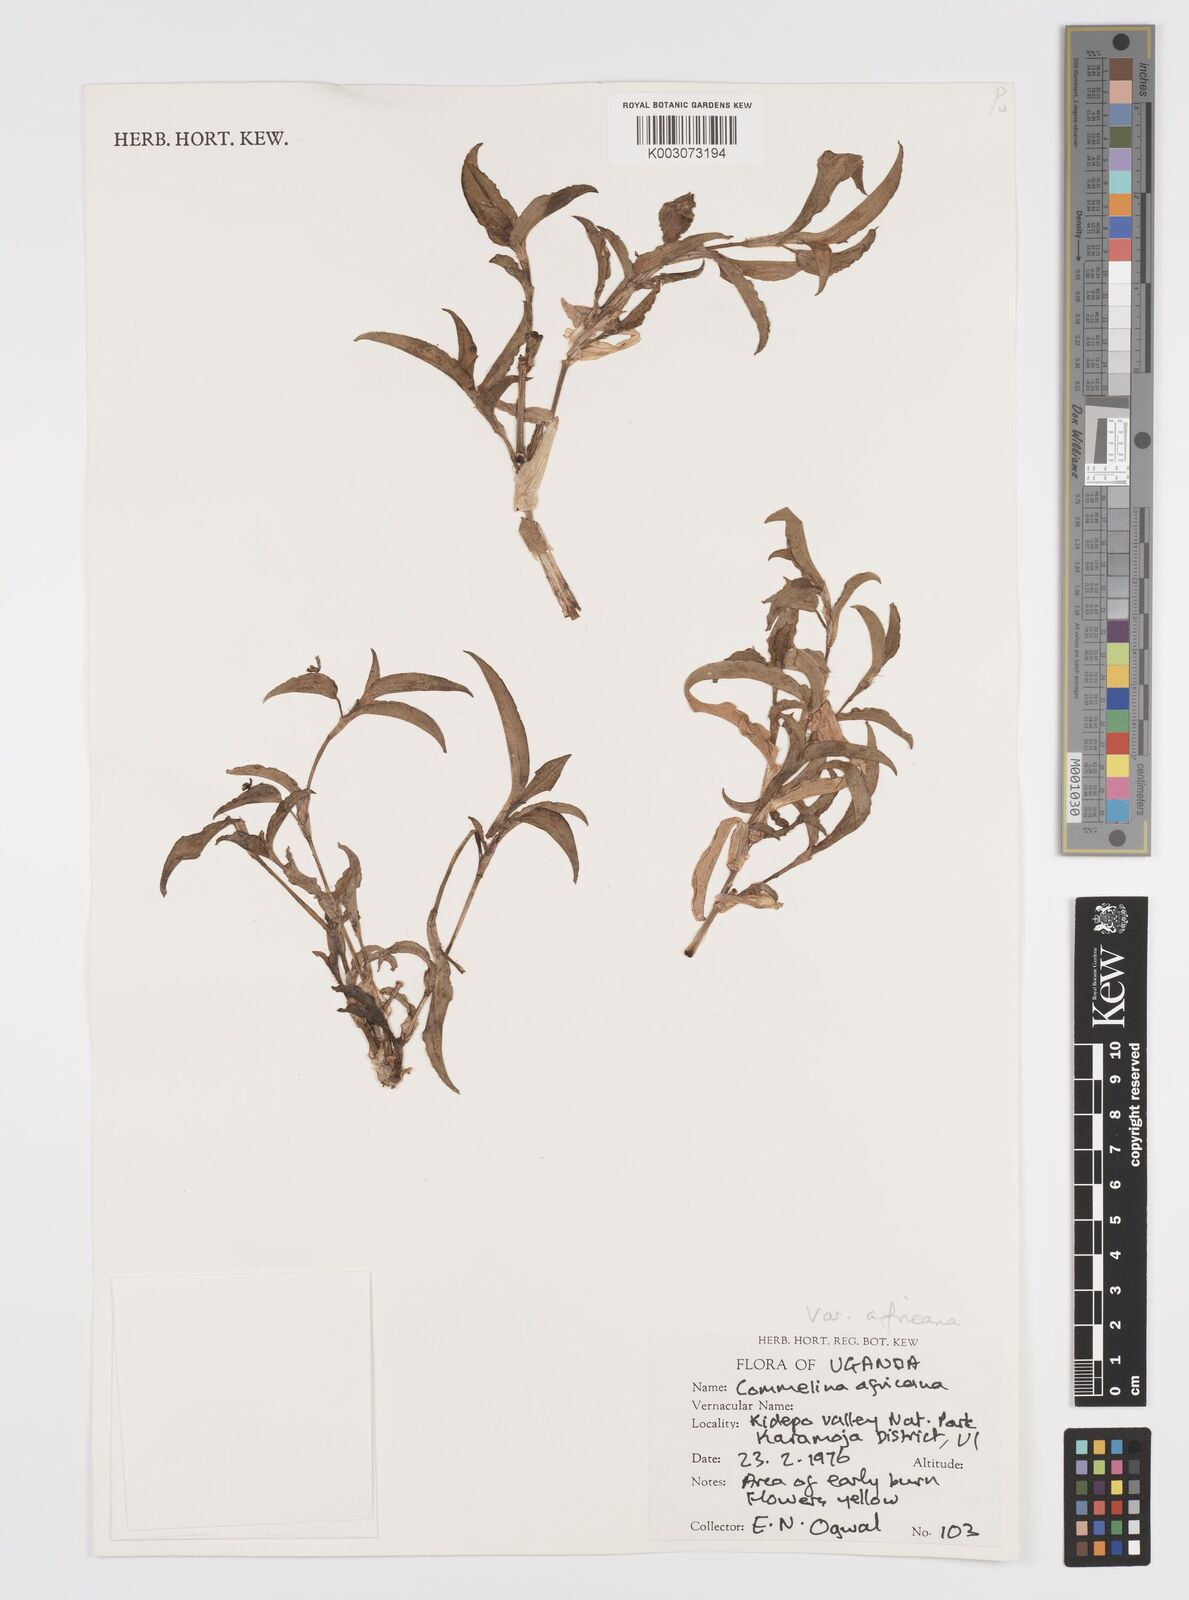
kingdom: Plantae
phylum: Tracheophyta
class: Liliopsida
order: Commelinales
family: Commelinaceae
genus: Commelina
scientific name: Commelina africana
